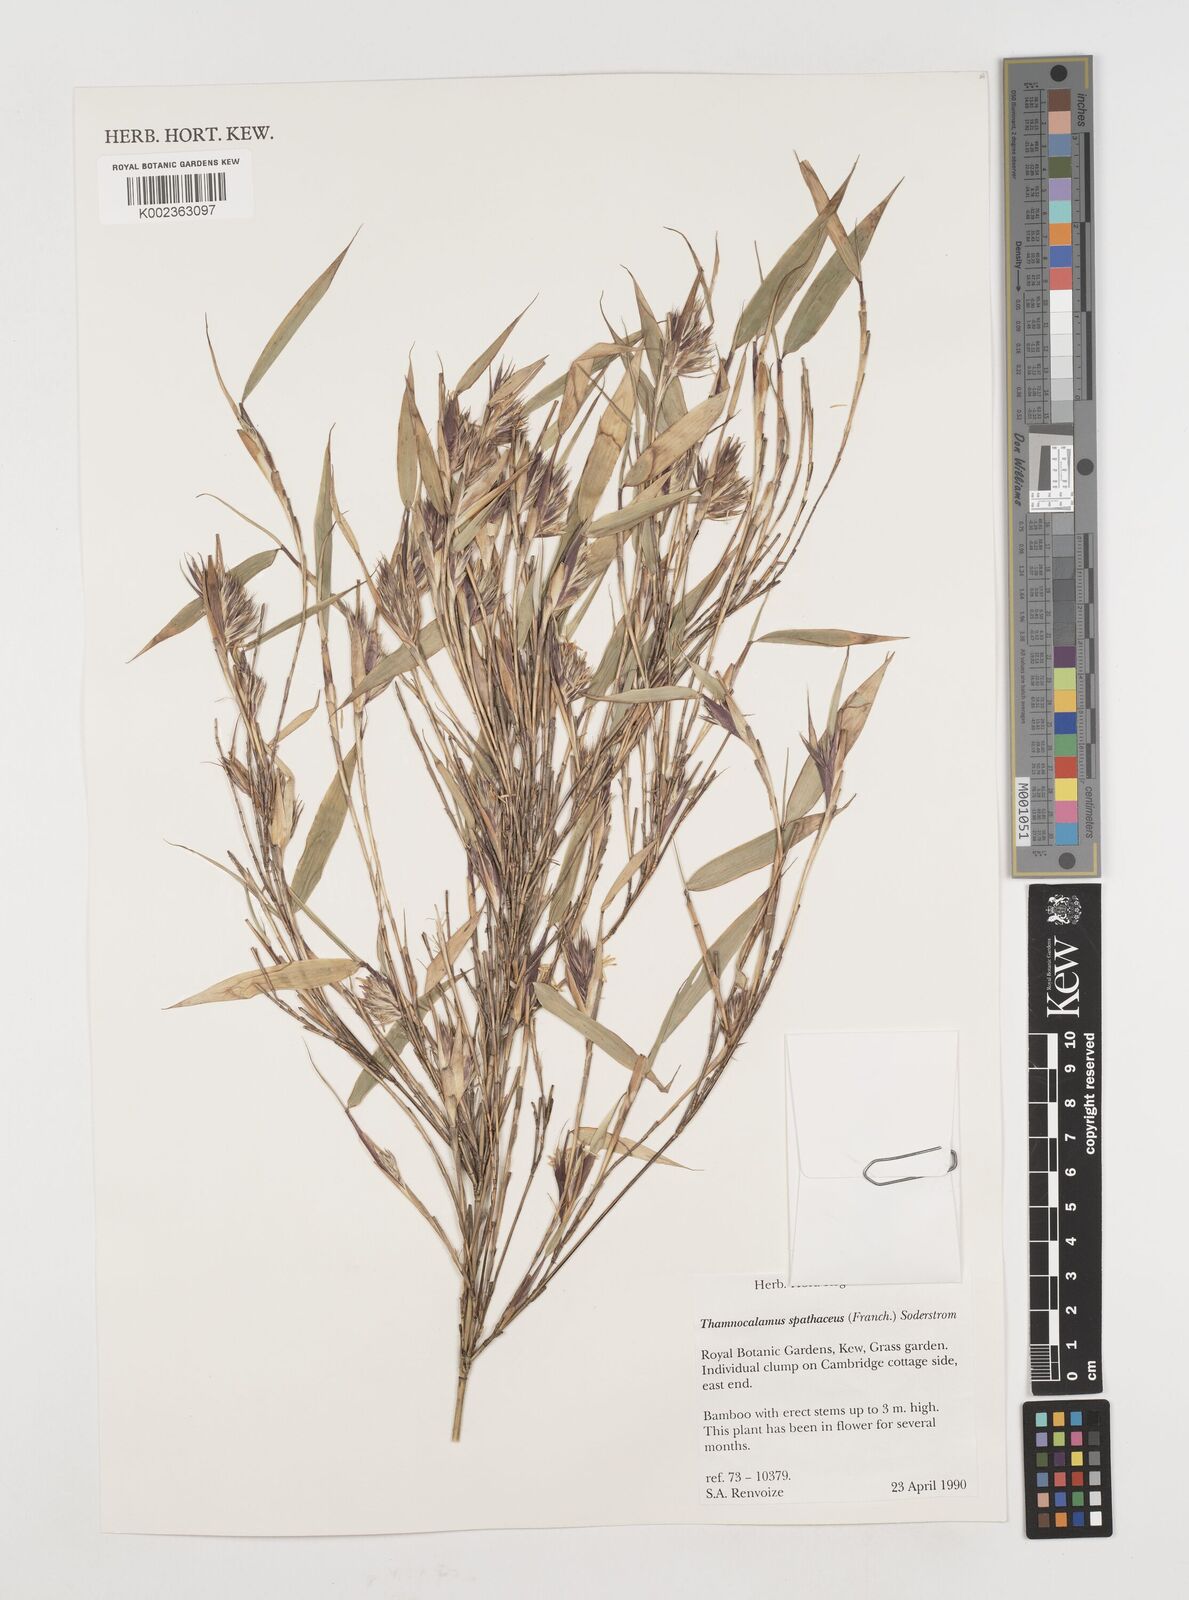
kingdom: Plantae
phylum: Tracheophyta
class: Liliopsida
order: Poales
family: Poaceae
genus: Fargesia
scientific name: Fargesia murielae
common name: Umbrella bamboo
